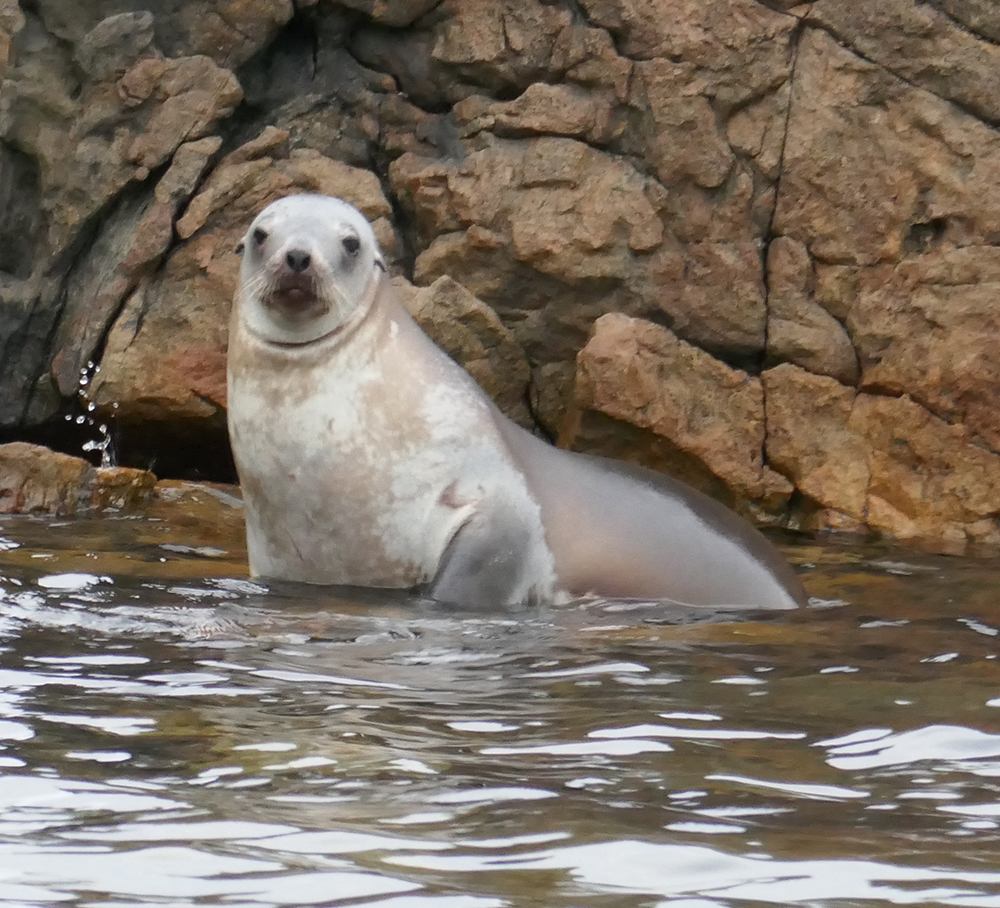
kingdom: Animalia
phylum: Chordata
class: Mammalia
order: Carnivora
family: Otariidae
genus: Phocarctos
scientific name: Phocarctos hookeri
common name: New zealand sea lion
